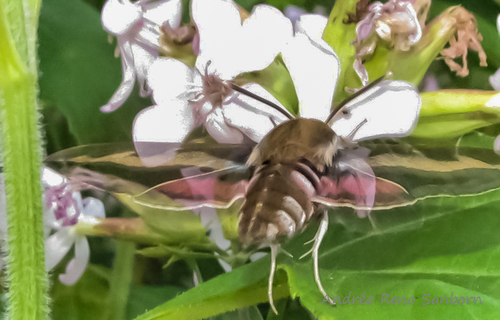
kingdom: Animalia
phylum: Arthropoda
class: Insecta
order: Lepidoptera
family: Sphingidae
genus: Hyles
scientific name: Hyles gallii
